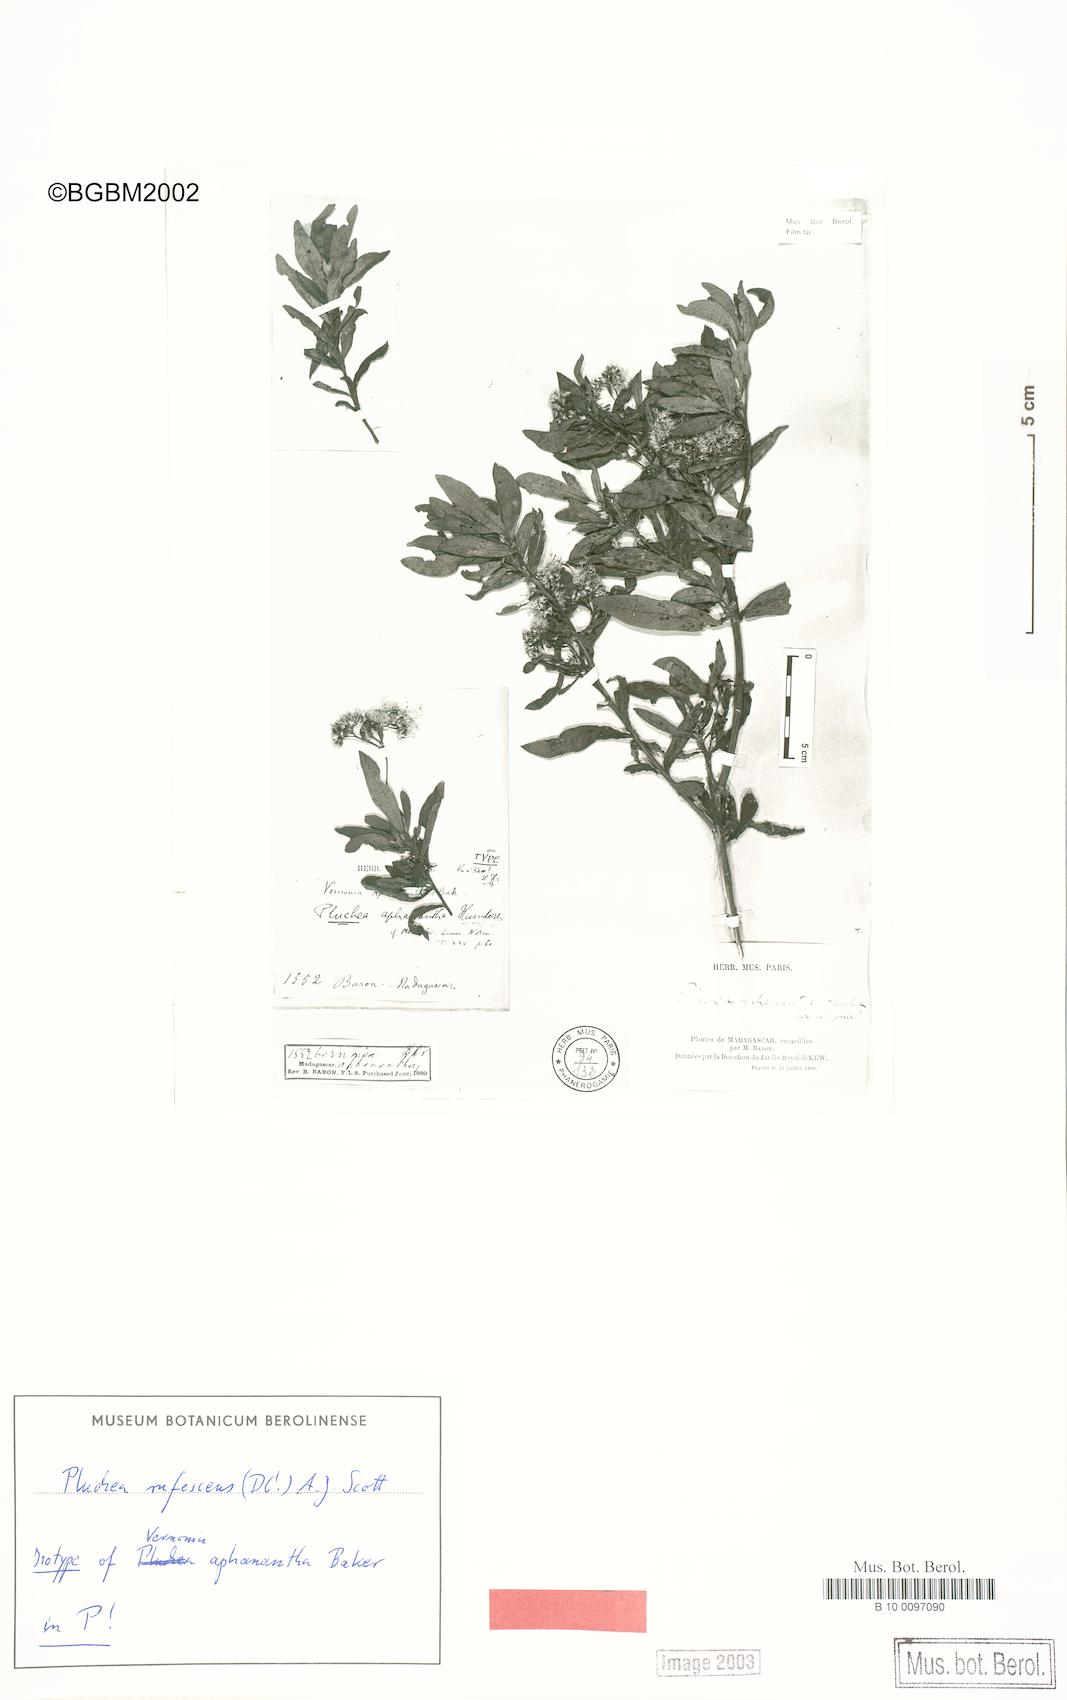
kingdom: Plantae
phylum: Tracheophyta
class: Magnoliopsida
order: Asterales
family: Asteraceae
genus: Pluchea
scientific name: Pluchea rufescens
